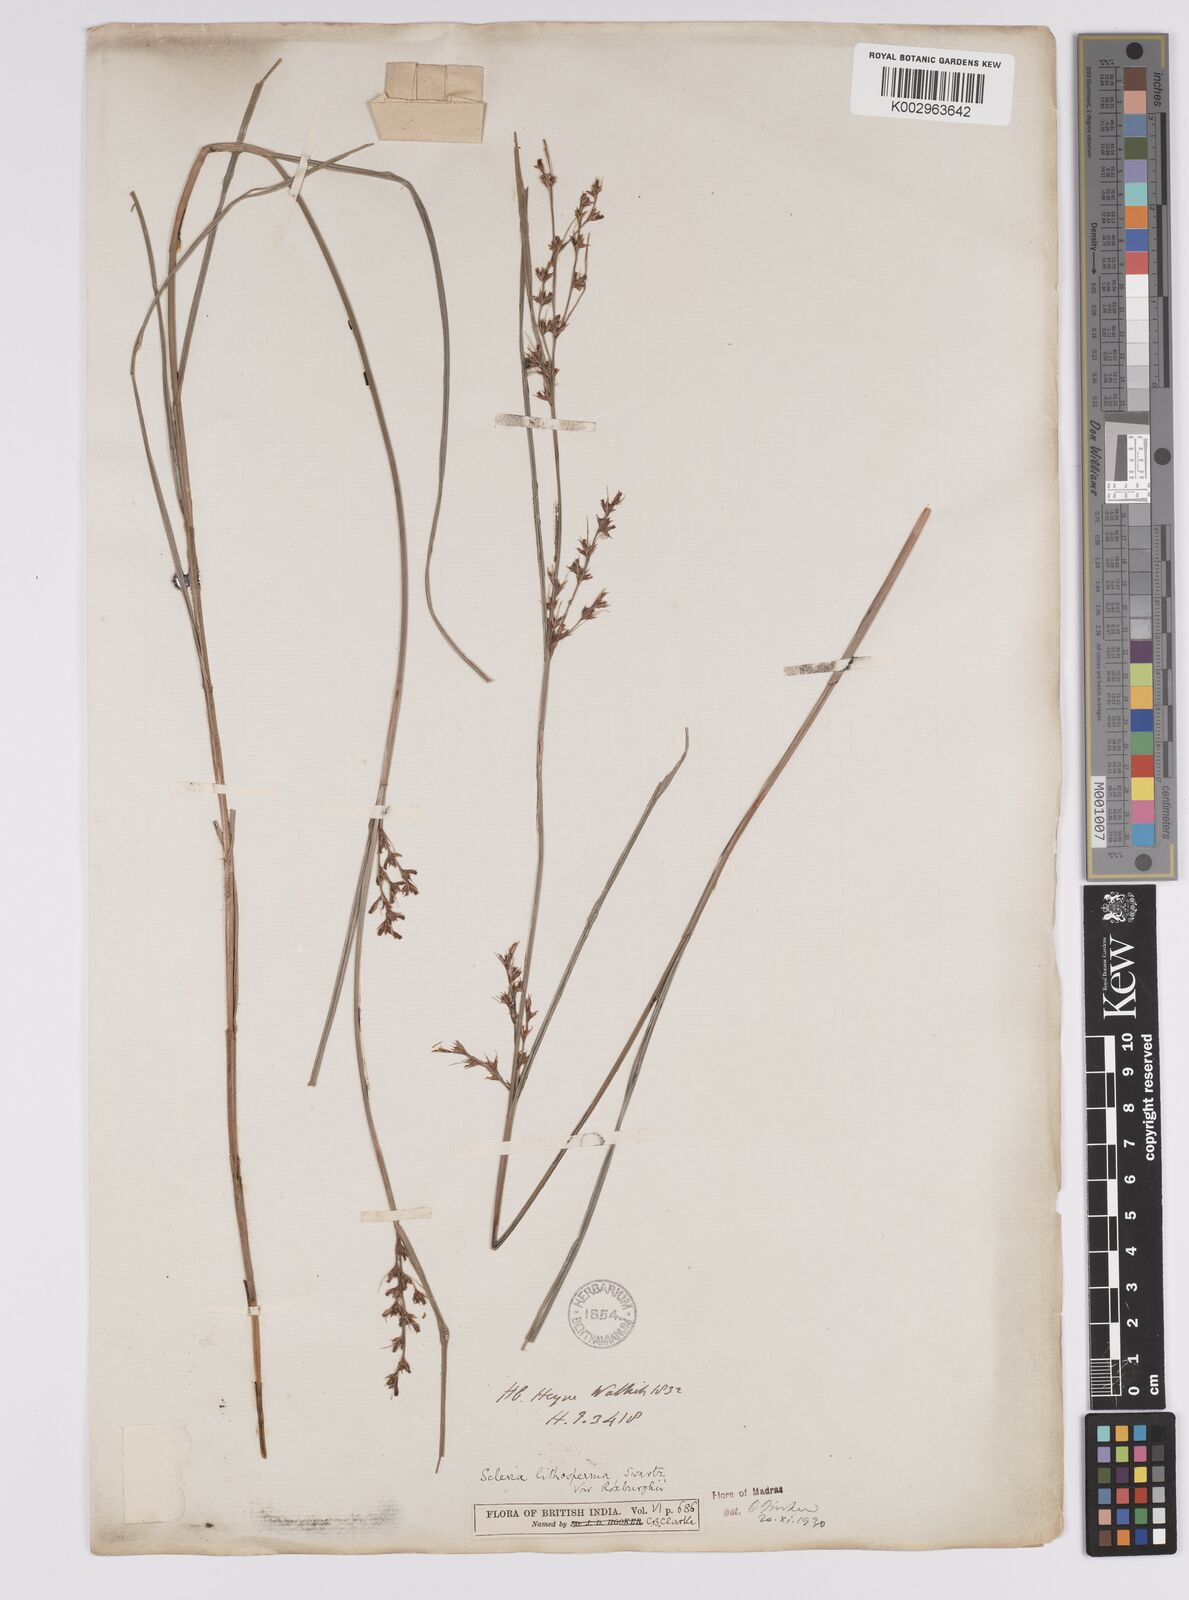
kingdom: Plantae
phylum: Tracheophyta
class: Liliopsida
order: Poales
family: Cyperaceae
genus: Scleria
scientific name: Scleria lithosperma
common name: Florida keys nut-rush
